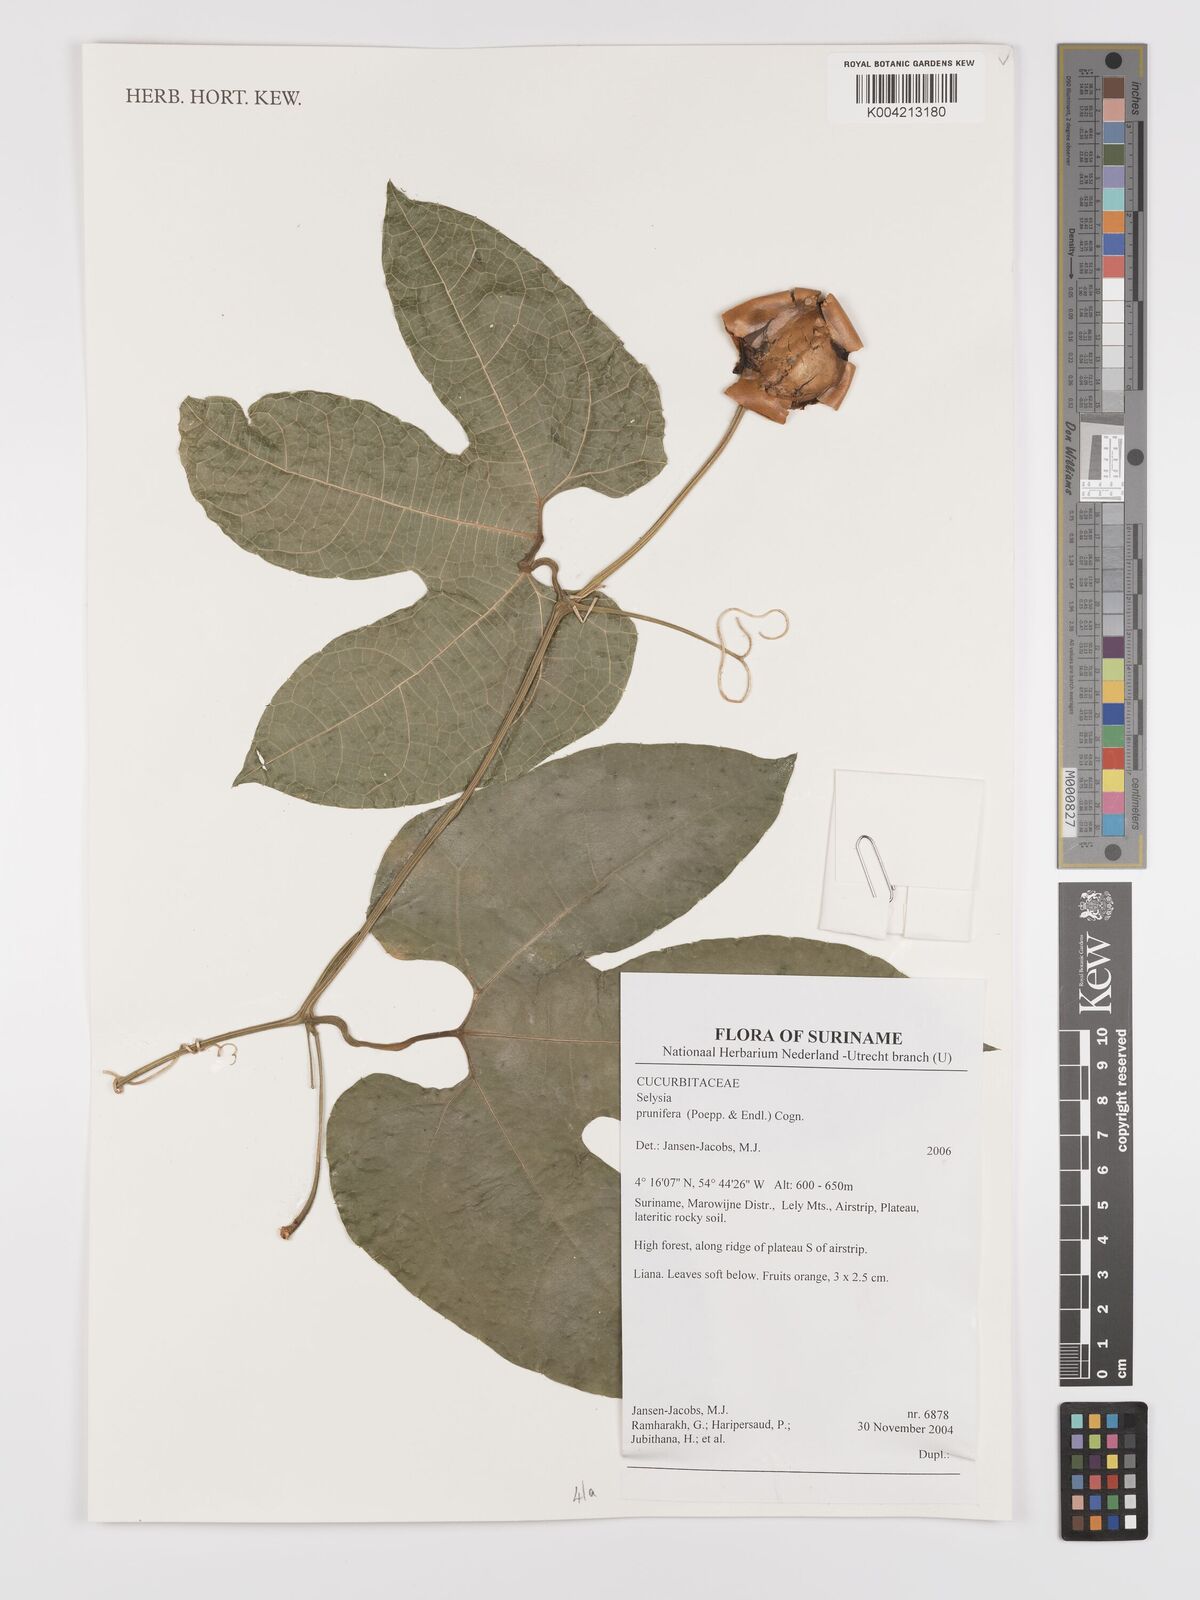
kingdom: Plantae
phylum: Tracheophyta
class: Magnoliopsida
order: Cucurbitales
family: Cucurbitaceae
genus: Cayaponia
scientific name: Cayaponia prunifera
